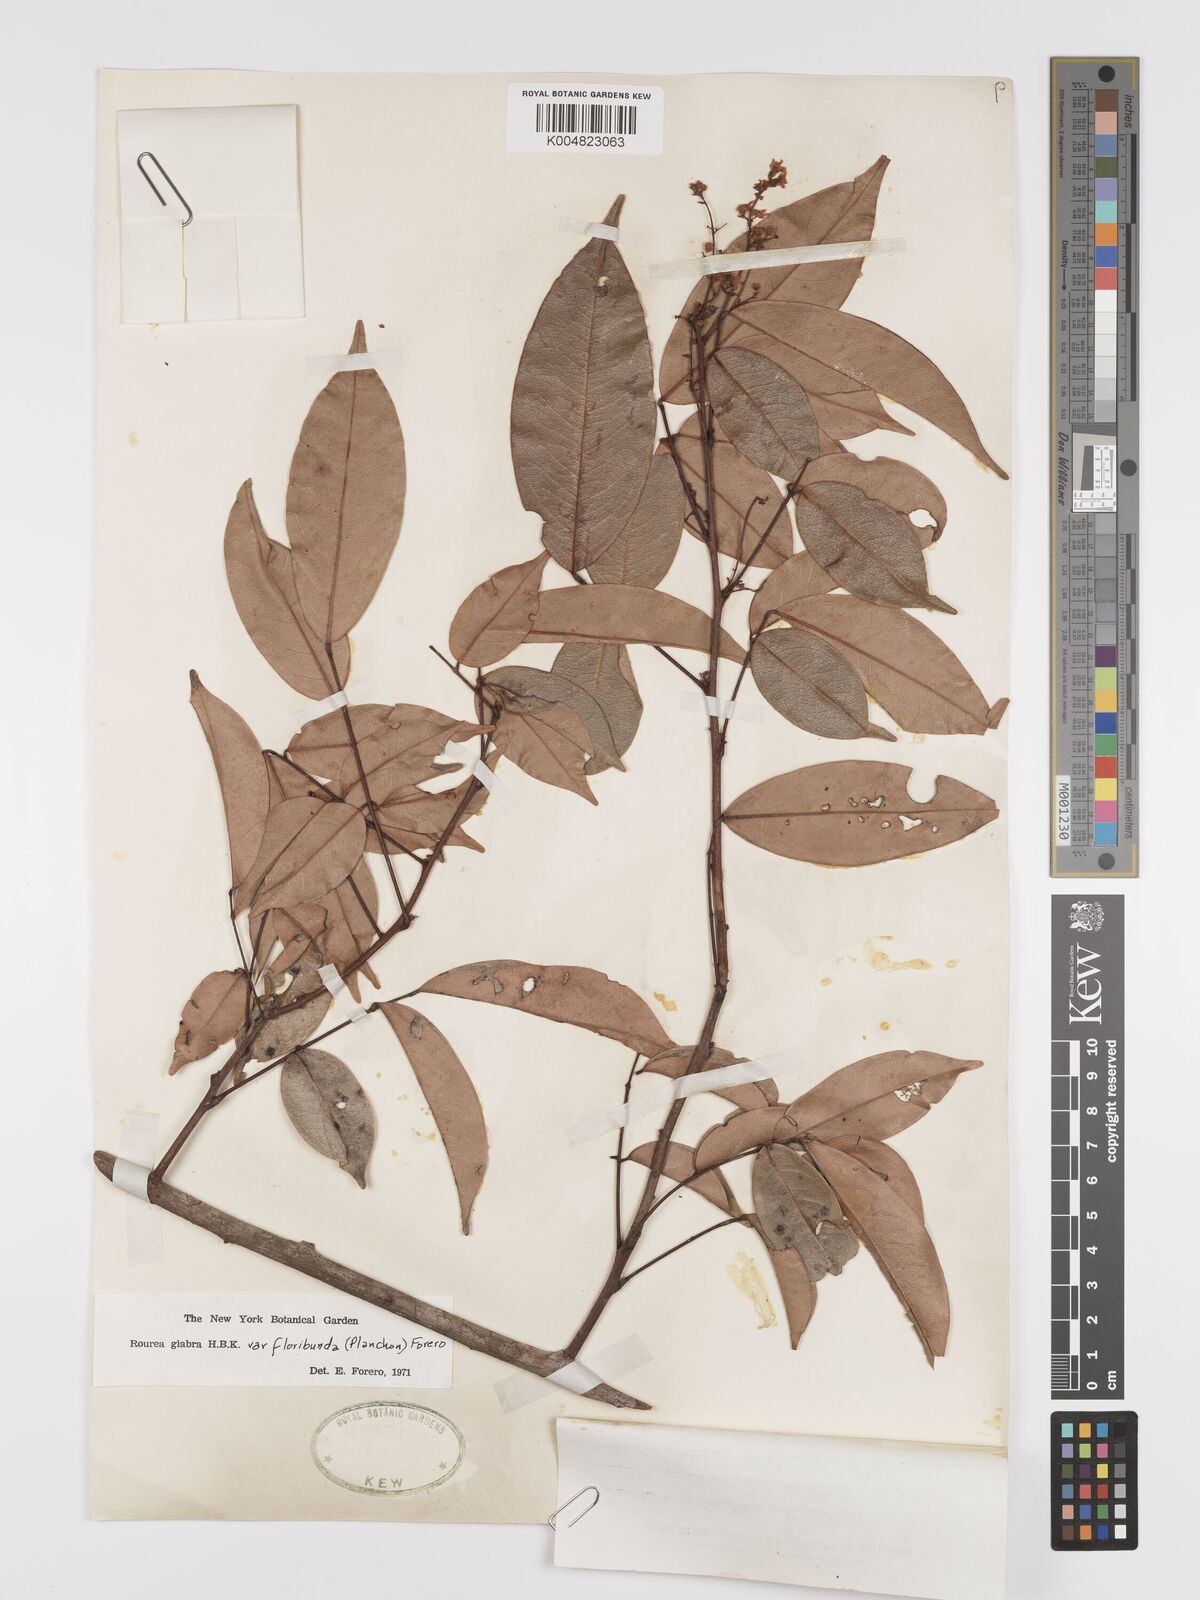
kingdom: Plantae
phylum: Tracheophyta
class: Magnoliopsida
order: Oxalidales
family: Connaraceae
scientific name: Connaraceae
